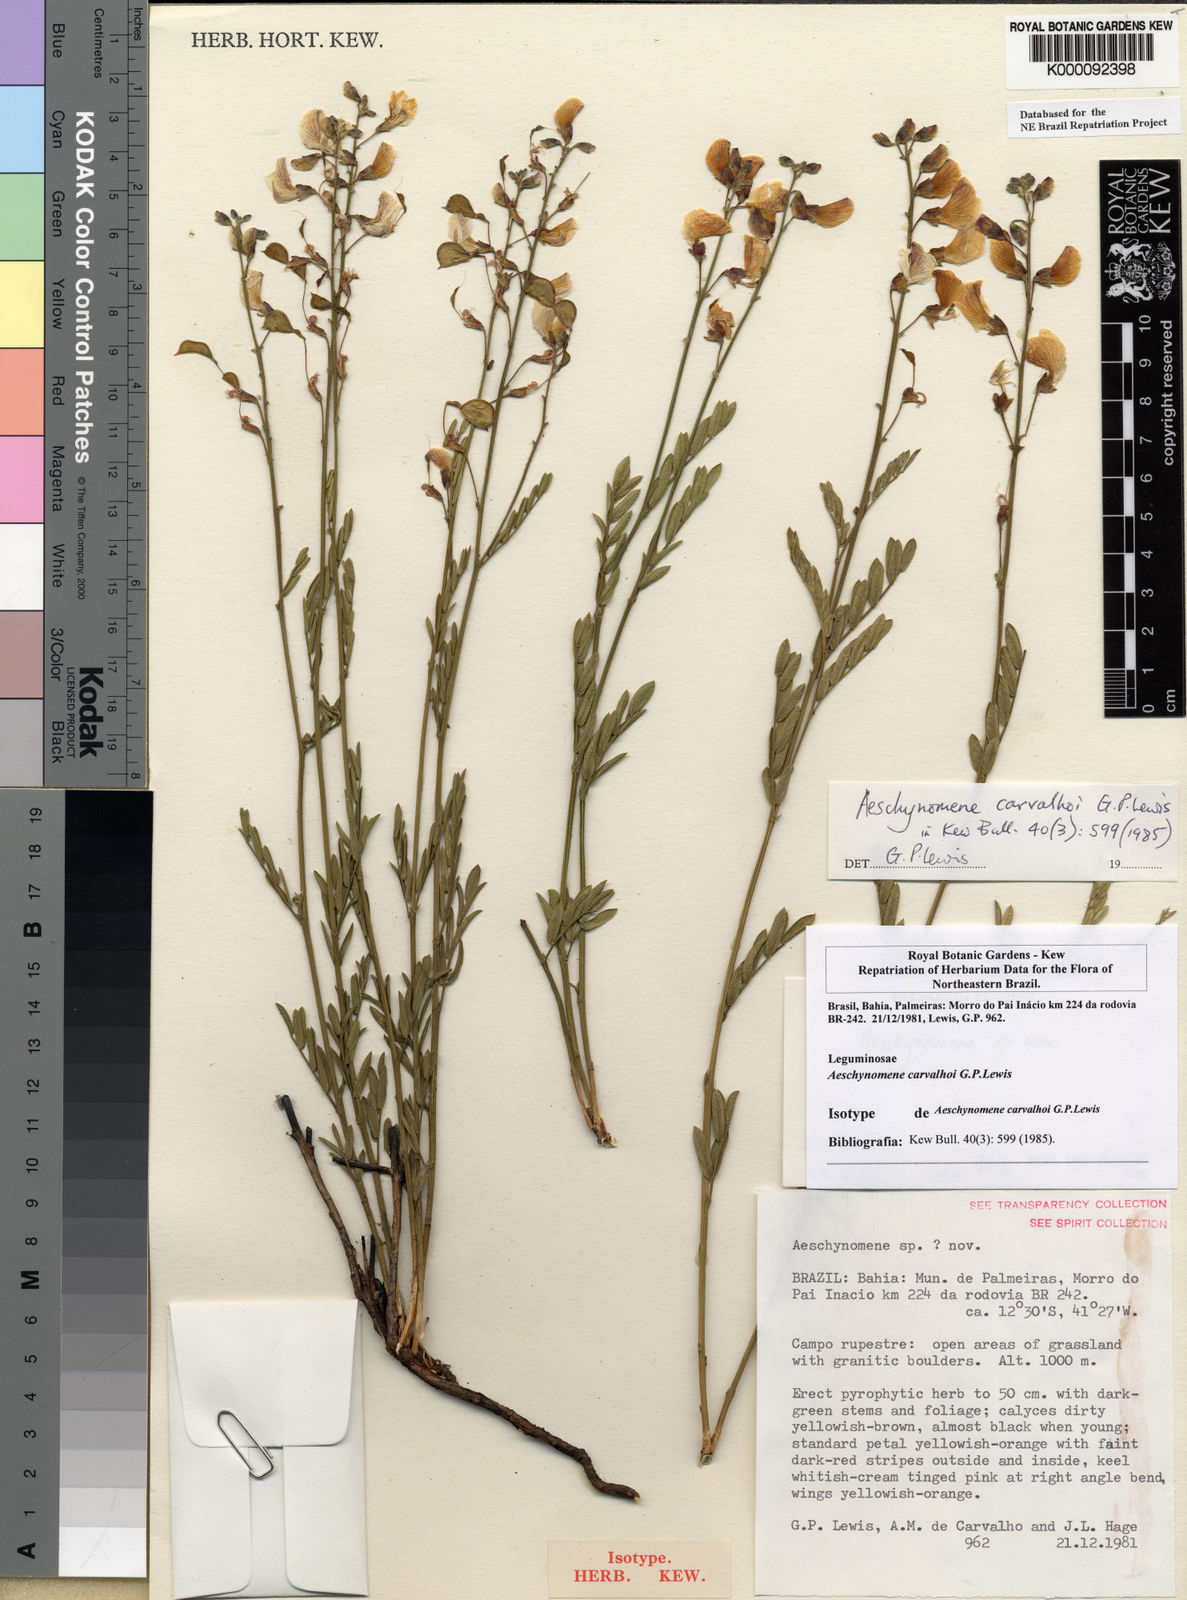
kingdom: Plantae
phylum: Tracheophyta
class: Magnoliopsida
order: Fabales
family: Fabaceae
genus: Ctenodon
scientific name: Ctenodon carvalhoi
